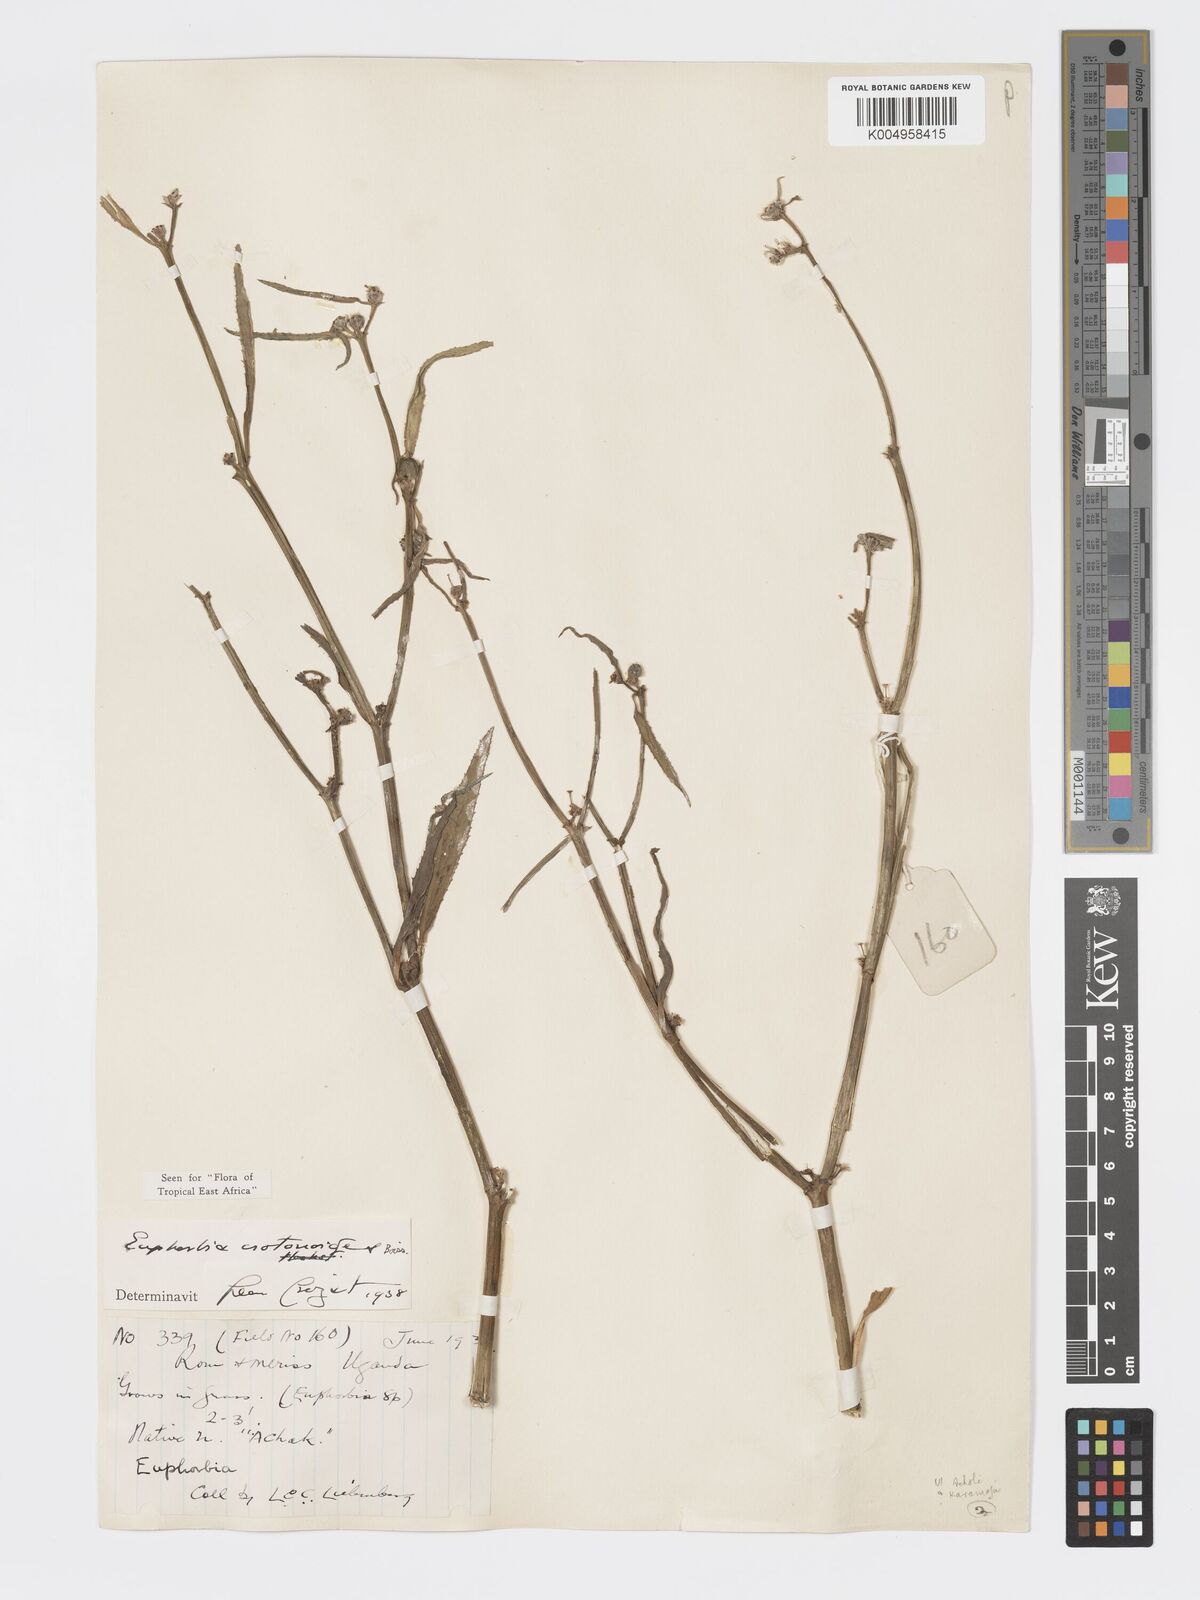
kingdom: Plantae
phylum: Tracheophyta
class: Magnoliopsida
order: Malpighiales
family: Euphorbiaceae
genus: Euphorbia
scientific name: Euphorbia crotonoides
